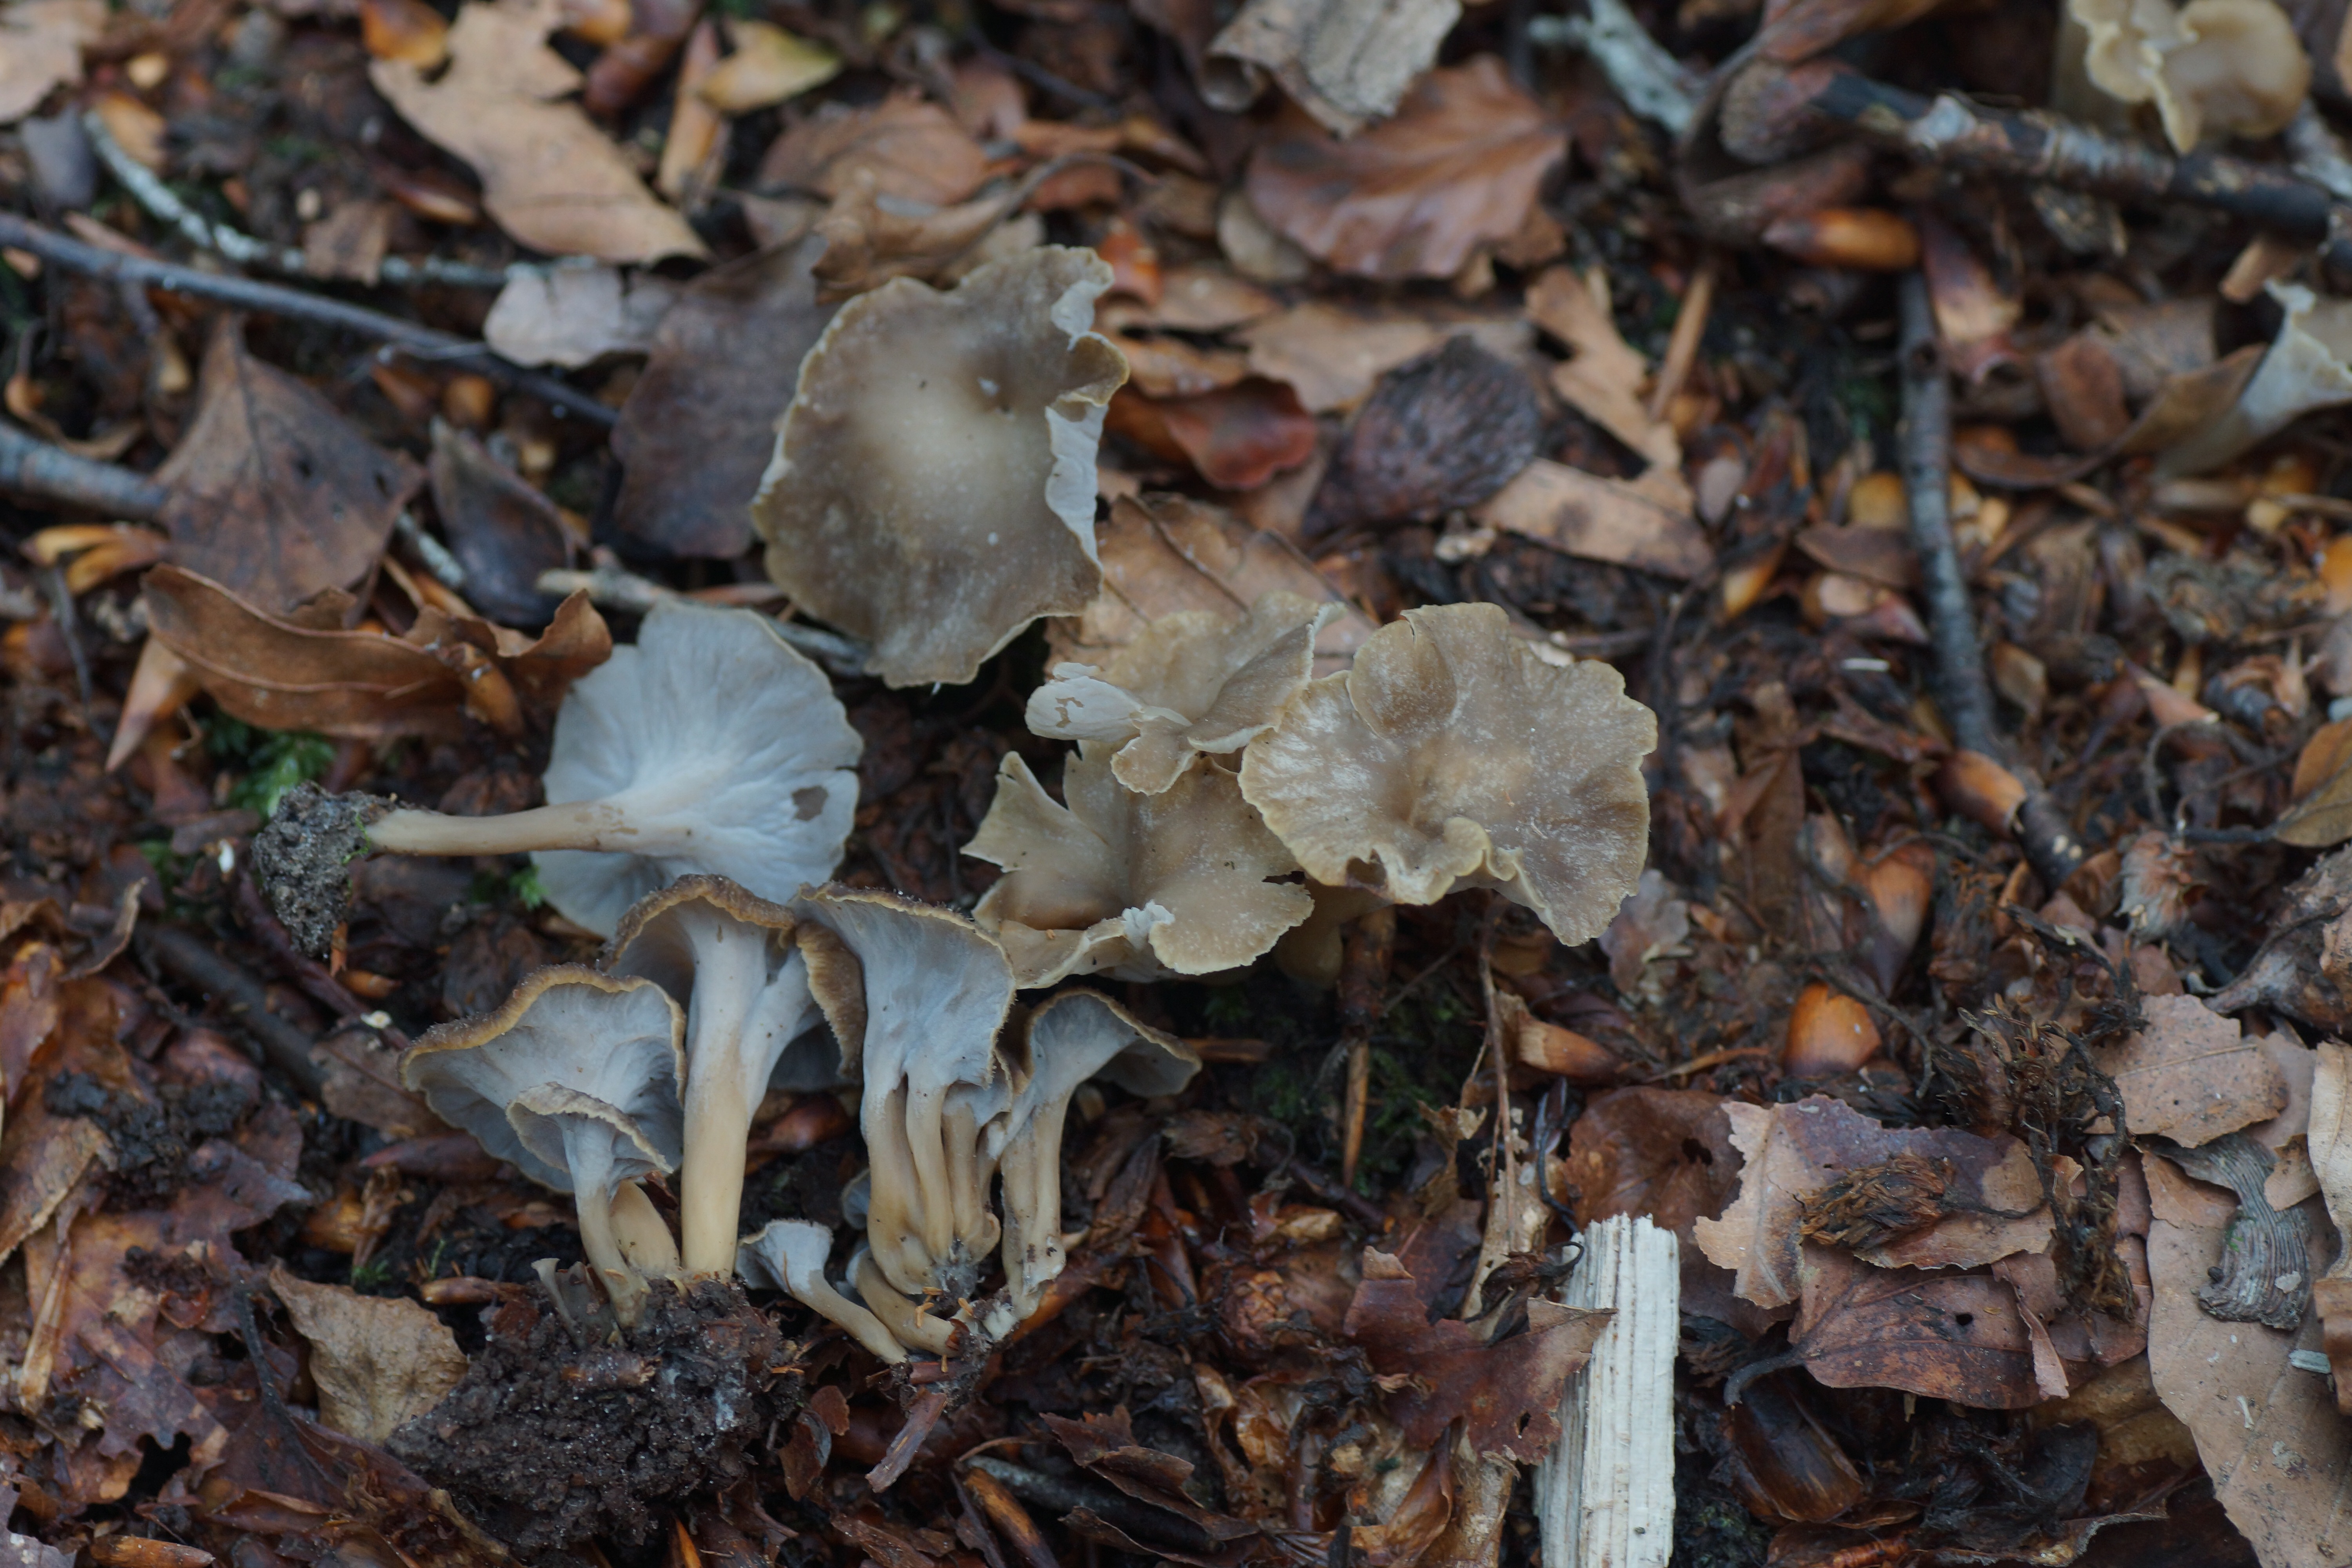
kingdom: Fungi
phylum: Basidiomycota
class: Agaricomycetes
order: Cantharellales
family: Hydnaceae
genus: Craterellus
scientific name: Craterellus undulatus
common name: liden kantarel
